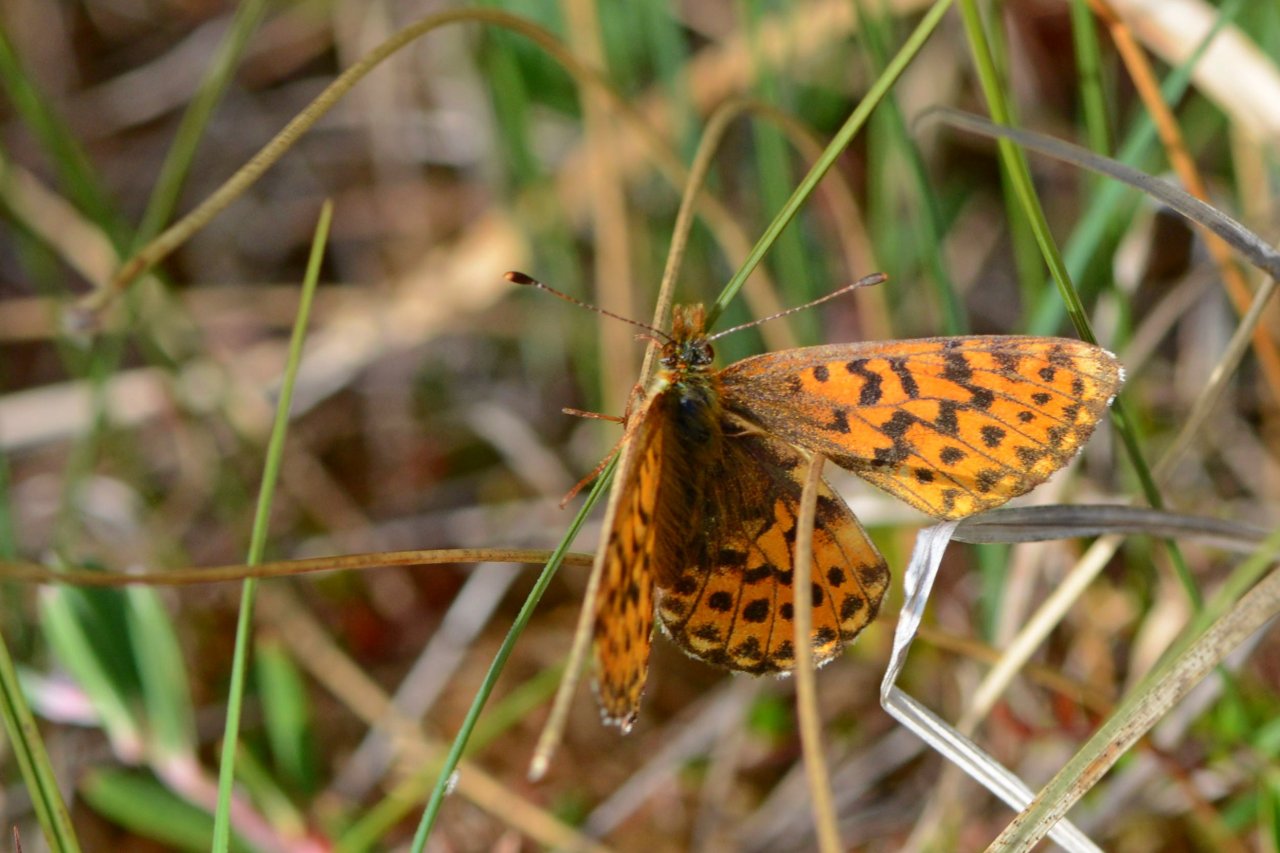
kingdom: Animalia
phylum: Arthropoda
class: Insecta
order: Lepidoptera
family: Nymphalidae
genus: Boloria
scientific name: Boloria chariclea
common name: Arctic Fritillary
